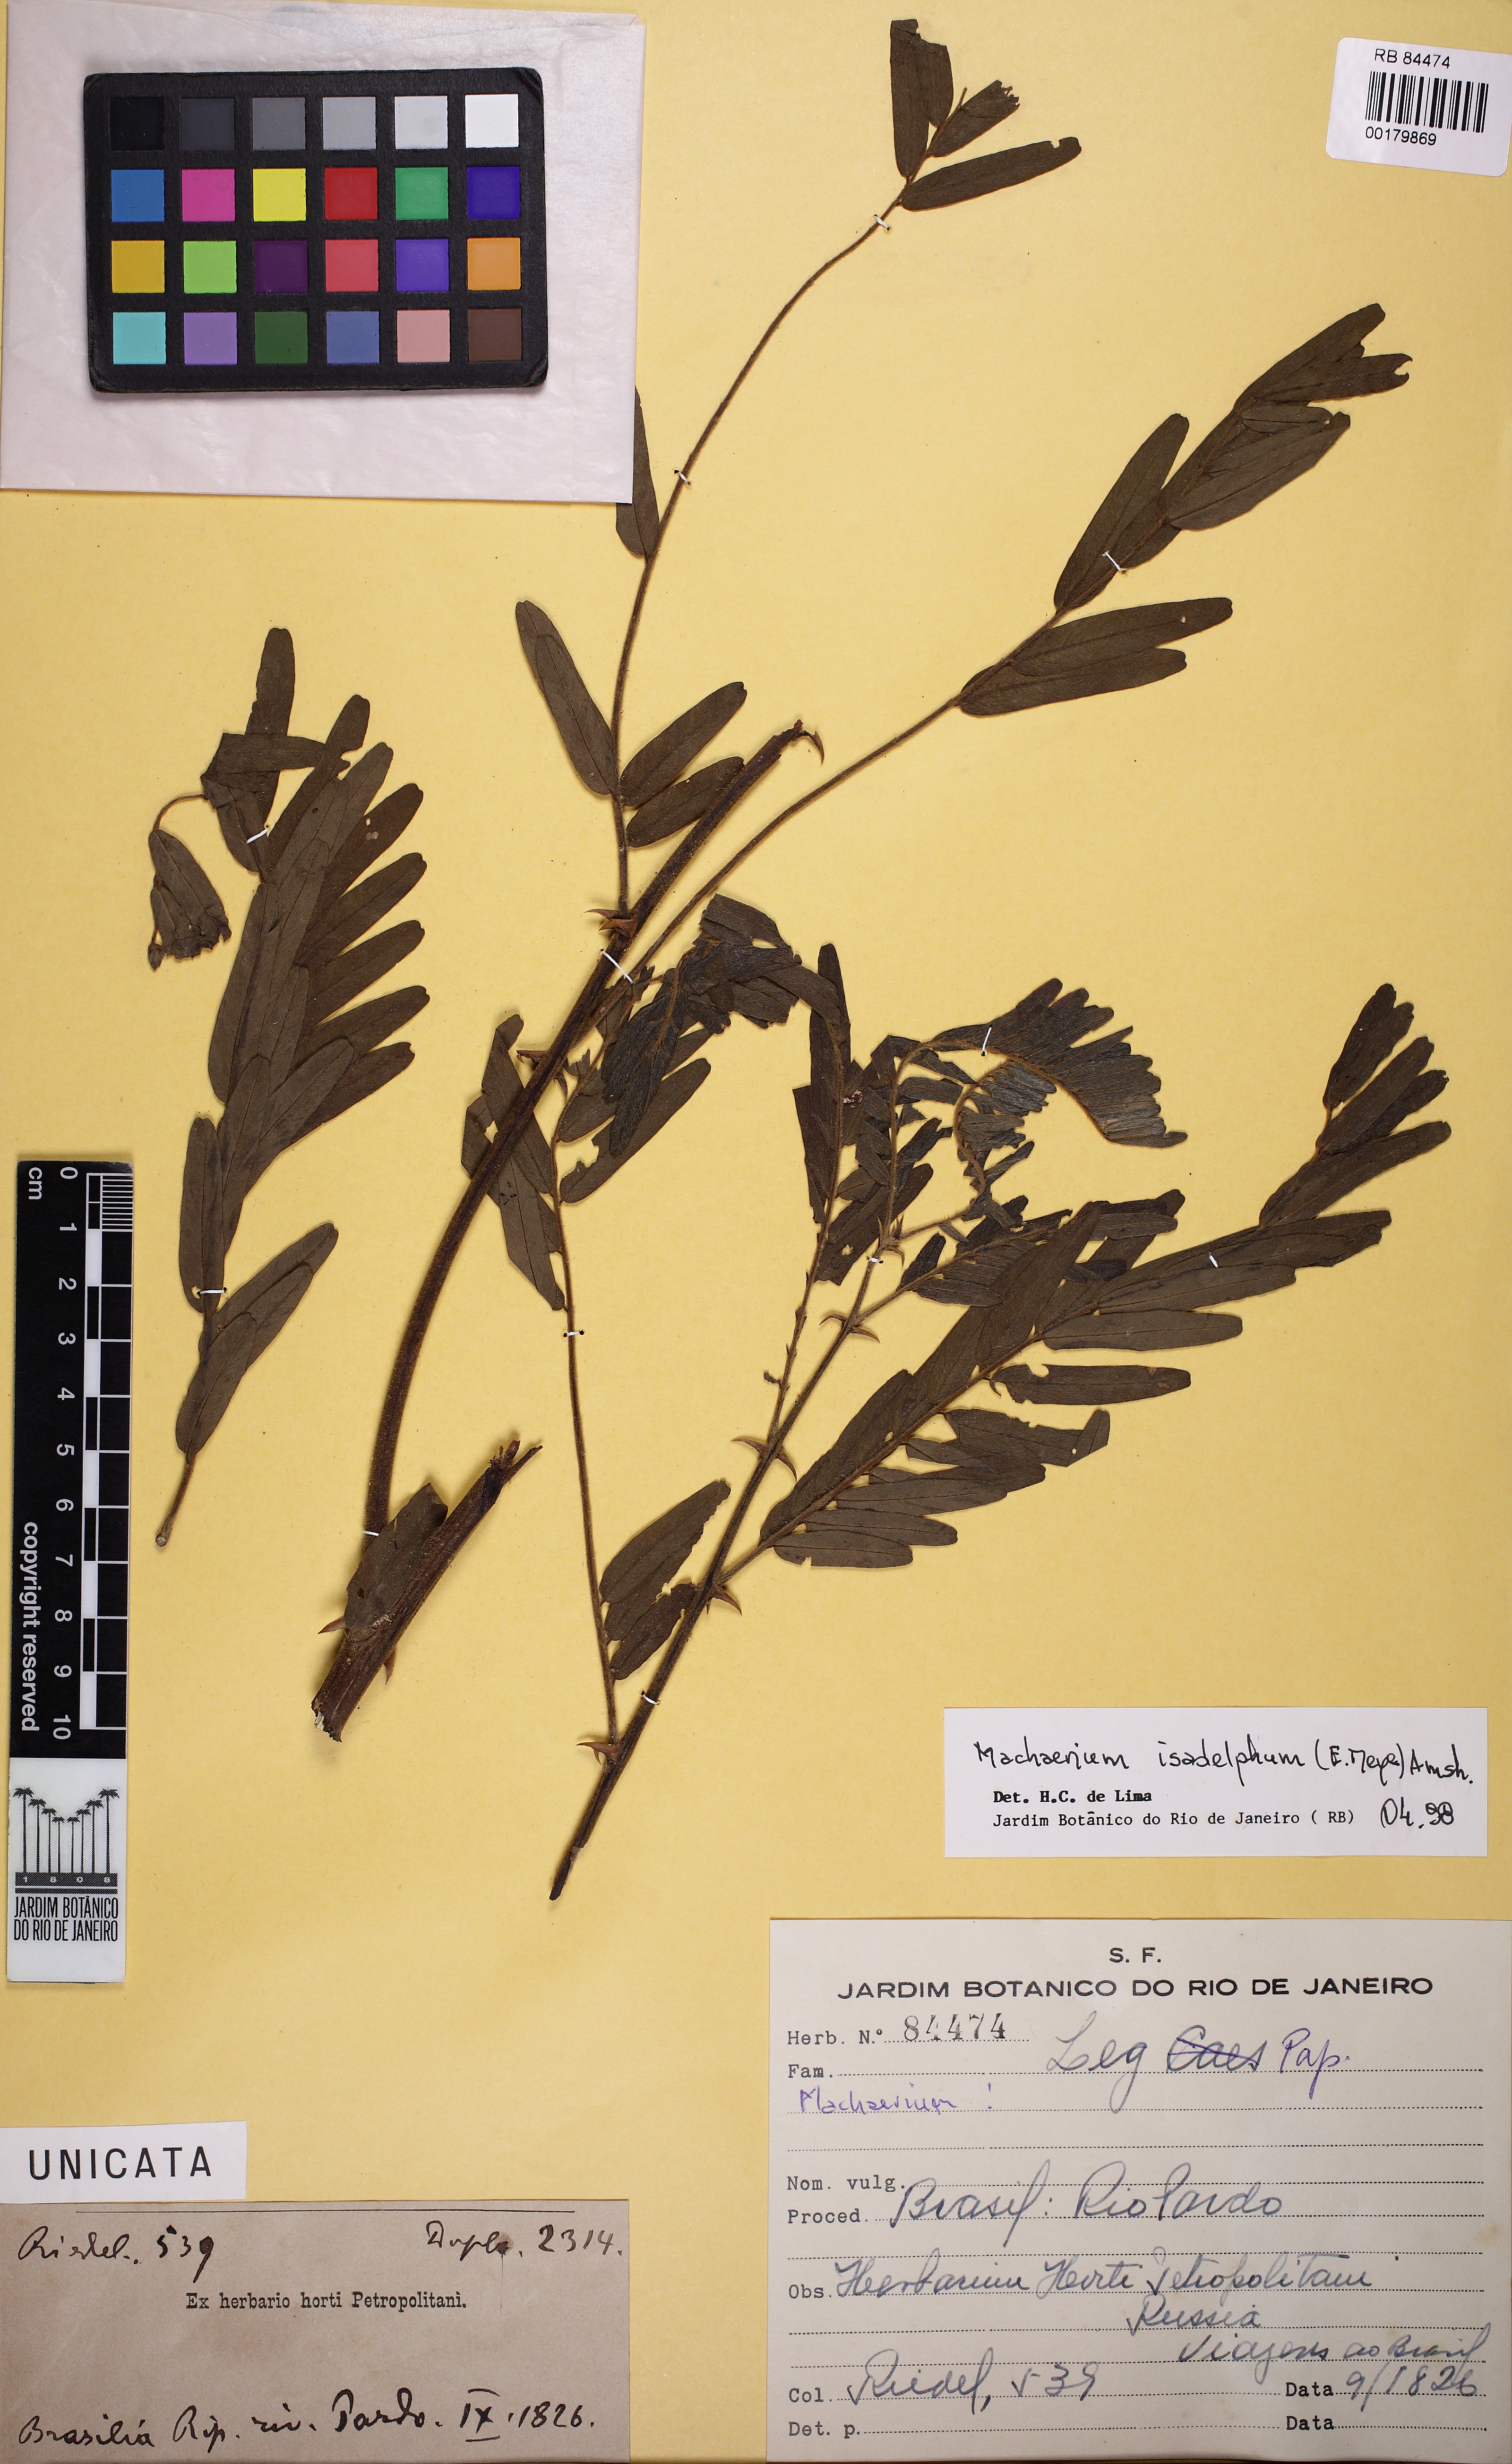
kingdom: Plantae
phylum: Tracheophyta
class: Magnoliopsida
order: Fabales
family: Fabaceae
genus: Machaerium
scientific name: Machaerium isadelphum
